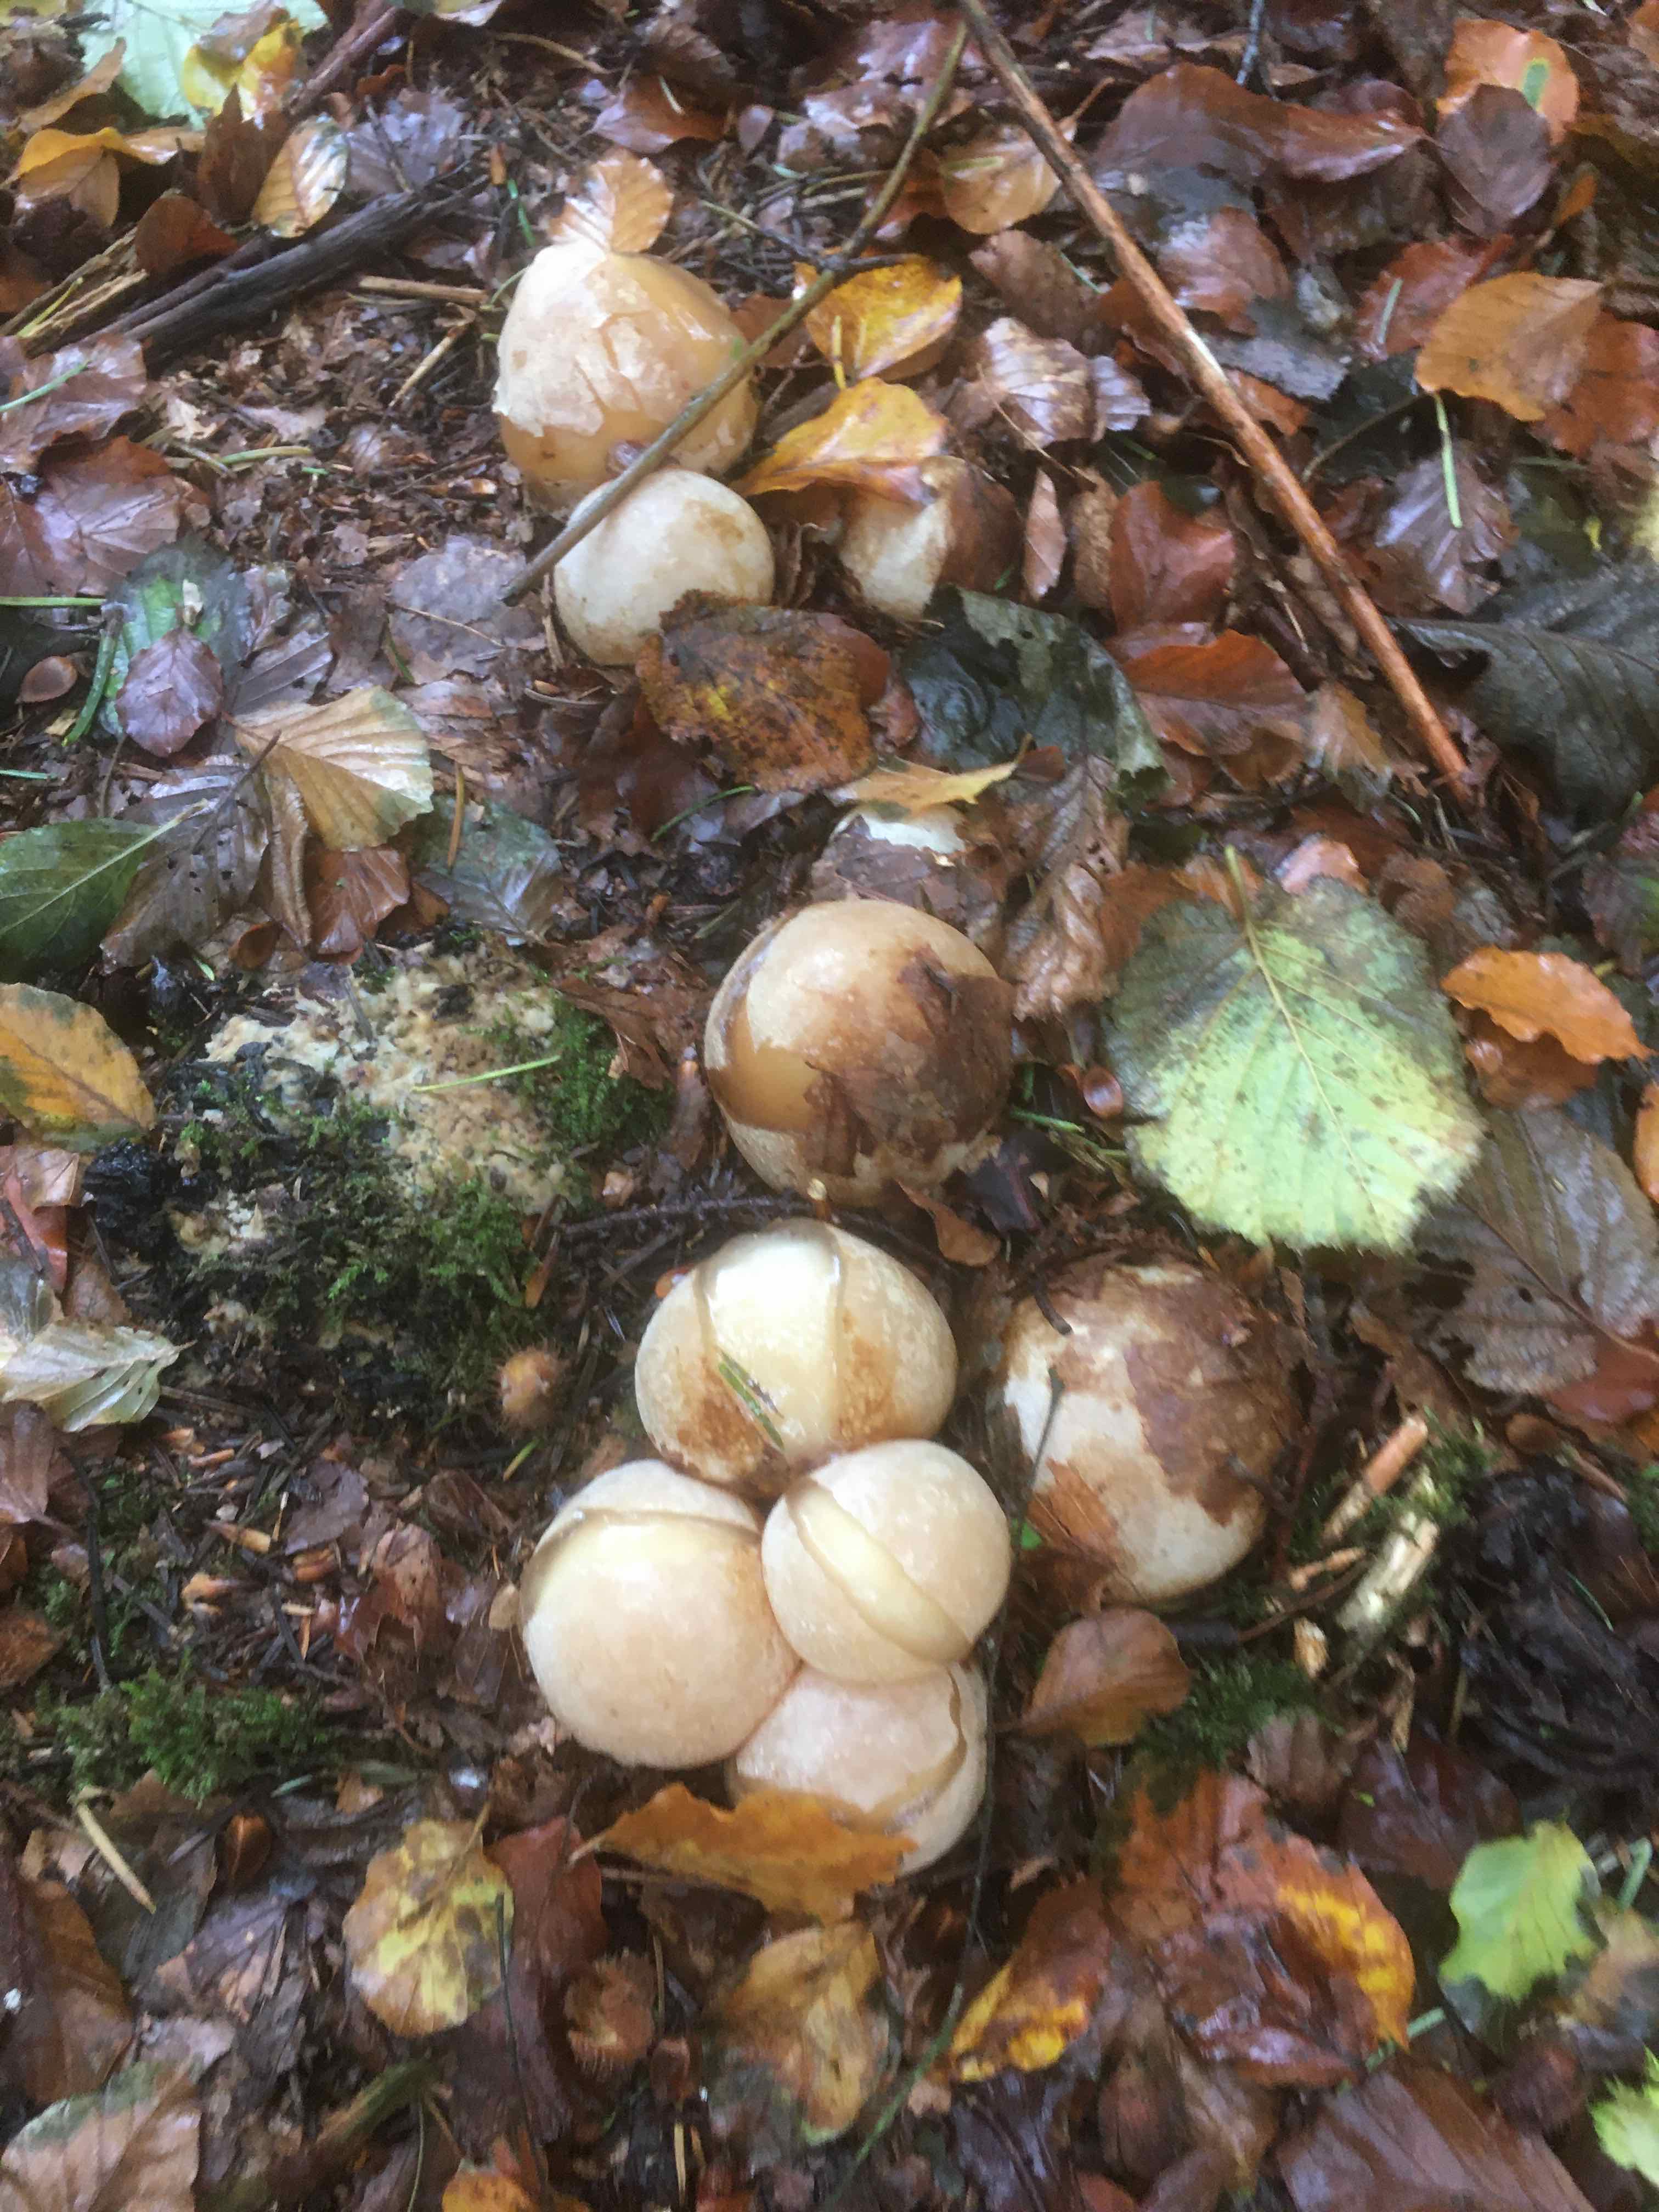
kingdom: Fungi
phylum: Basidiomycota
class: Agaricomycetes
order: Phallales
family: Phallaceae
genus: Phallus
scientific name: Phallus impudicus
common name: almindelig stinksvamp
